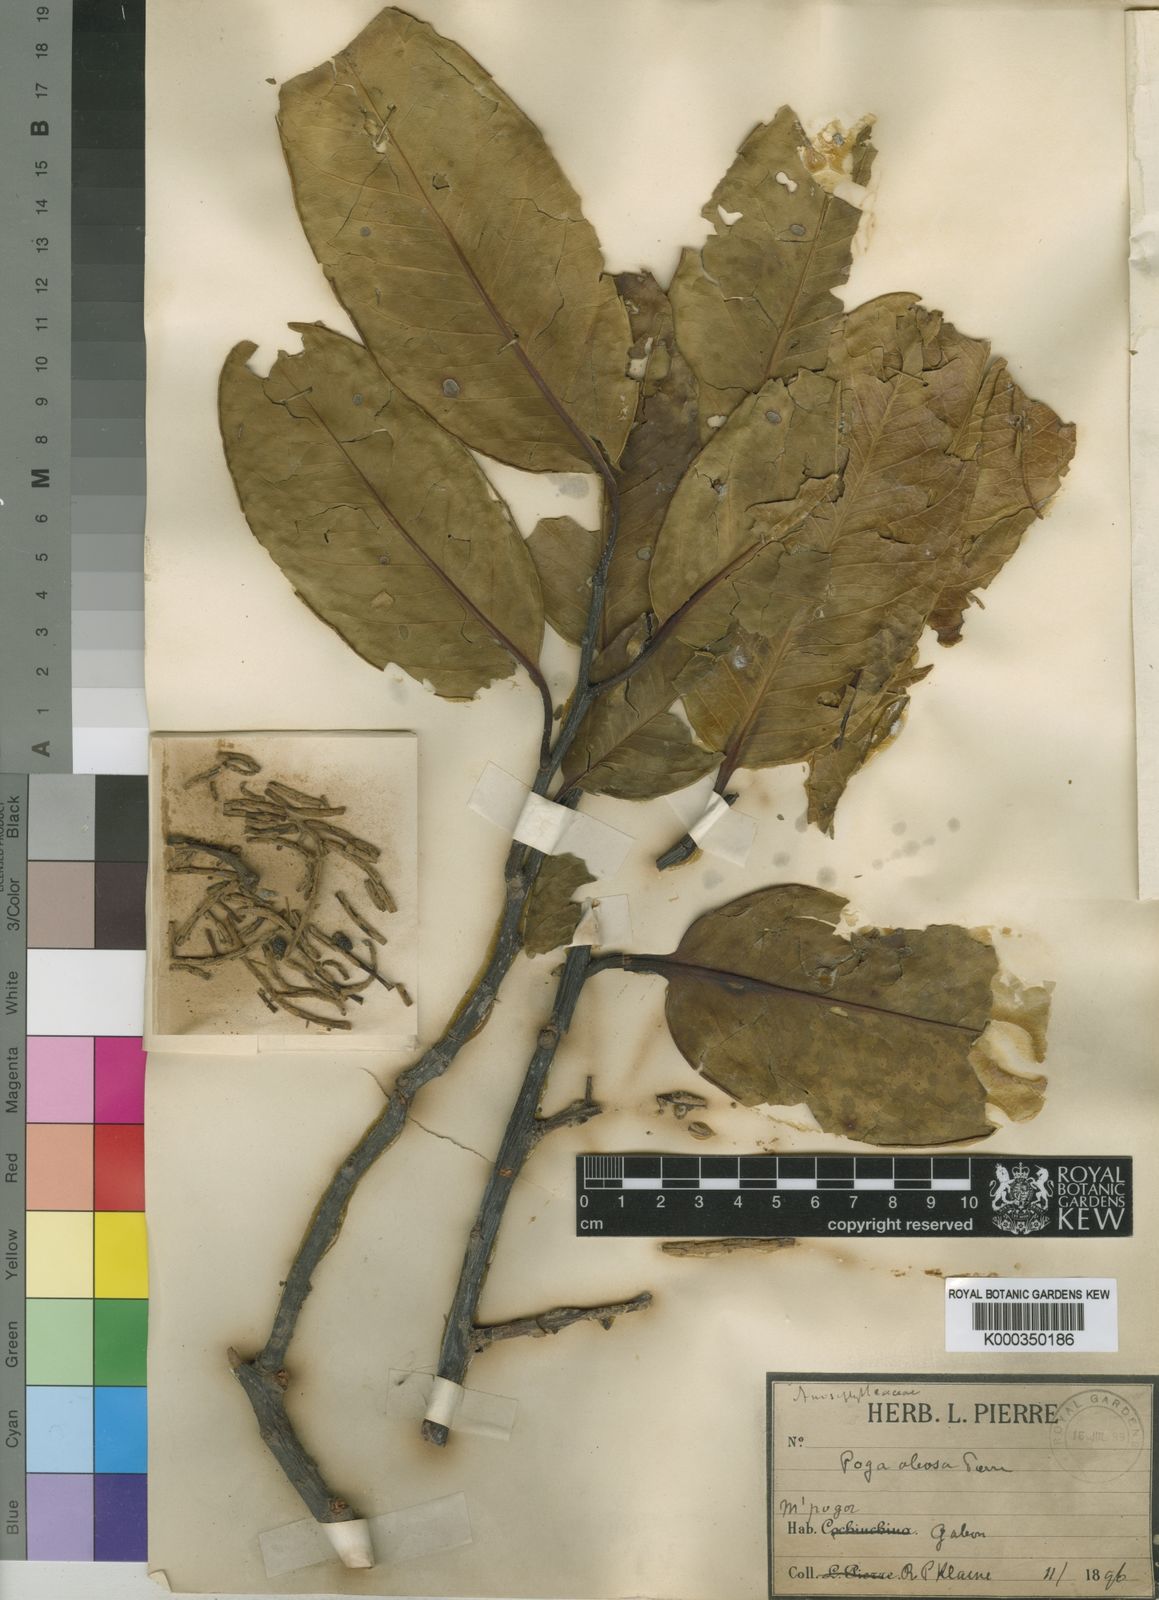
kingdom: Plantae
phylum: Tracheophyta
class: Magnoliopsida
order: Cucurbitales
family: Anisophylleaceae
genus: Poga
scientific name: Poga oleosa
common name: African brazil nut
